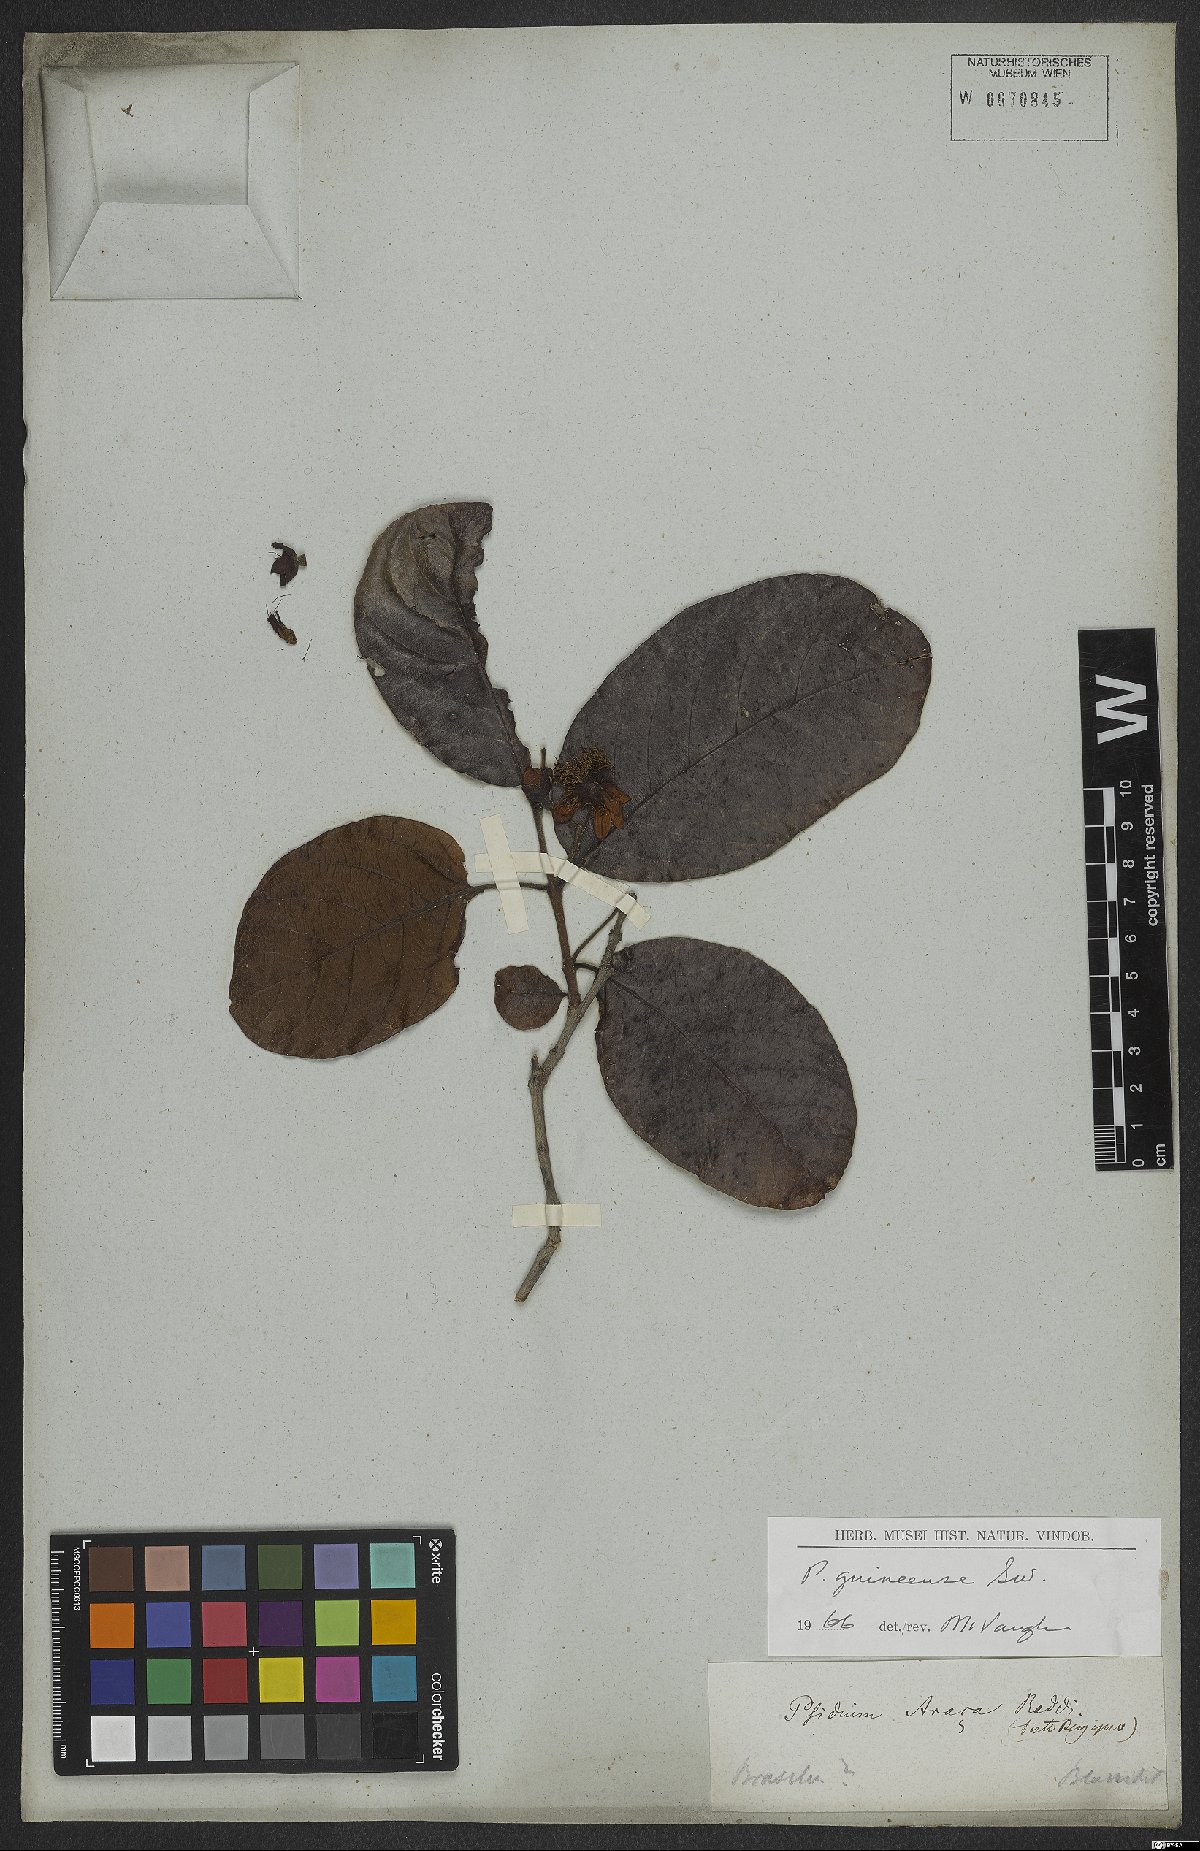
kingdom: Plantae
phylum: Tracheophyta
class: Magnoliopsida
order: Myrtales
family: Myrtaceae
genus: Psidium
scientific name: Psidium guineense
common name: Brazilian guava
